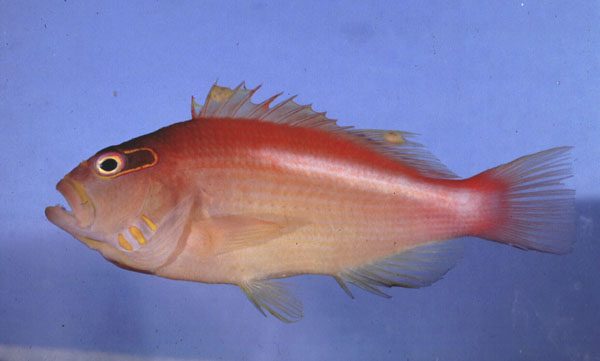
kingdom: Animalia
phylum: Chordata
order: Perciformes
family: Cirrhitidae
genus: Paracirrhites
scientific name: Paracirrhites arcatus
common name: Arc-eye hawkfish
